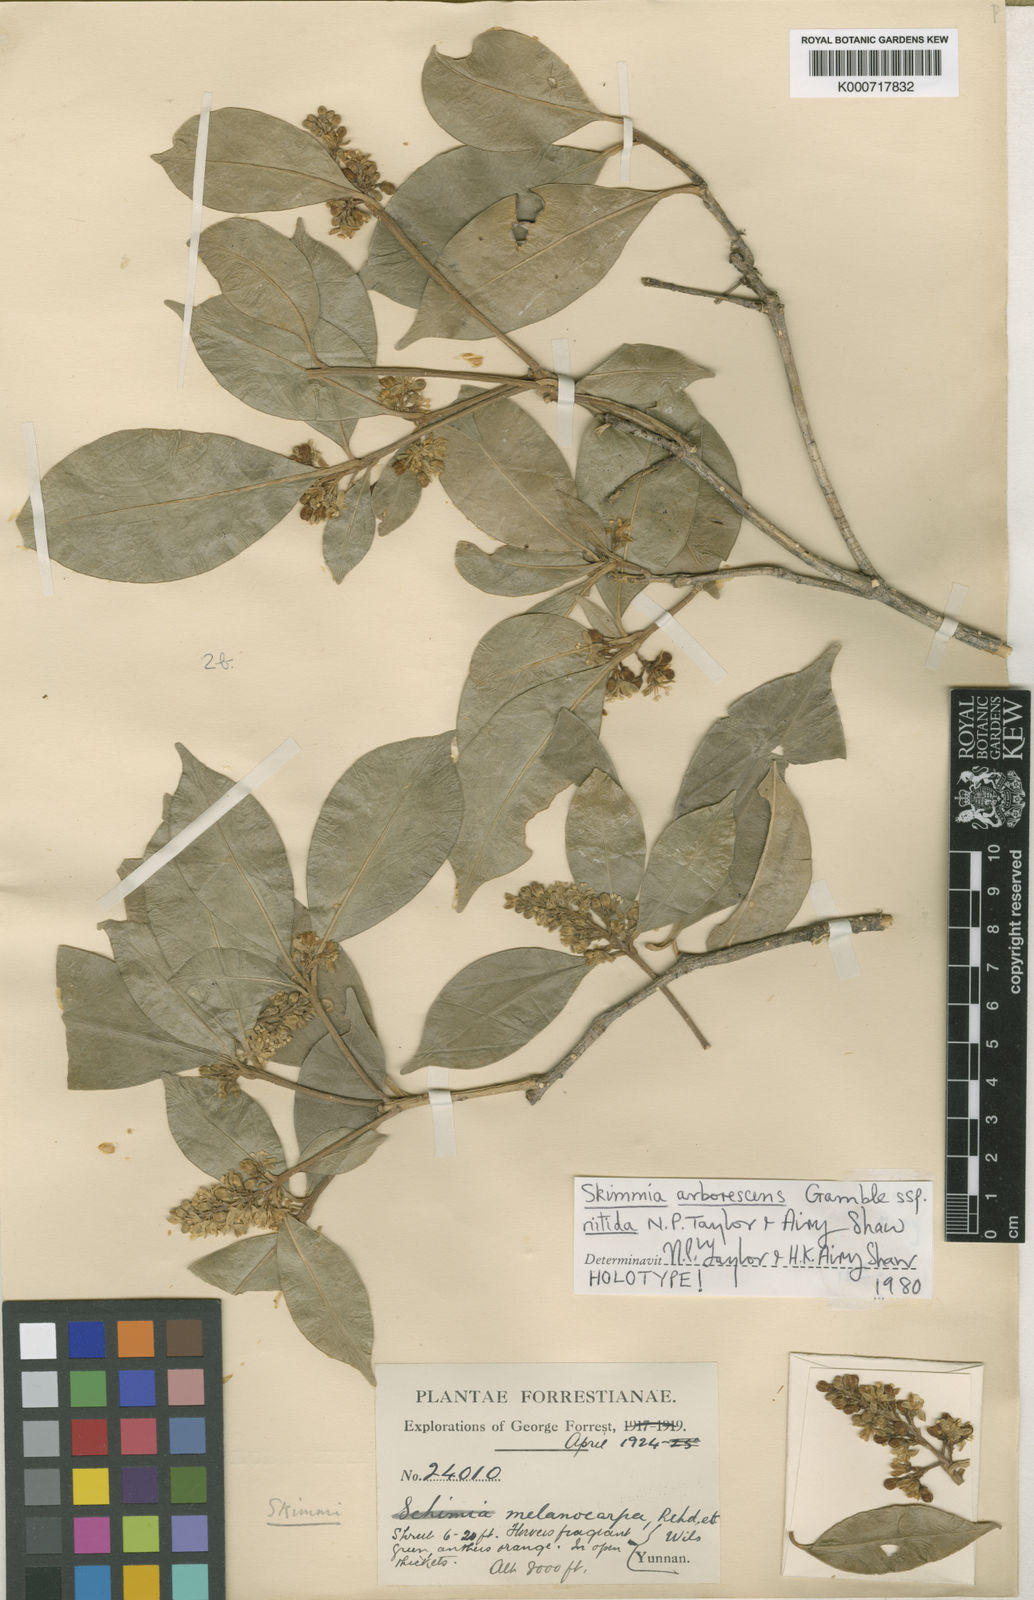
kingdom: Plantae
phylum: Tracheophyta
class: Magnoliopsida
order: Sapindales
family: Rutaceae
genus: Skimmia
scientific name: Skimmia arborescens
